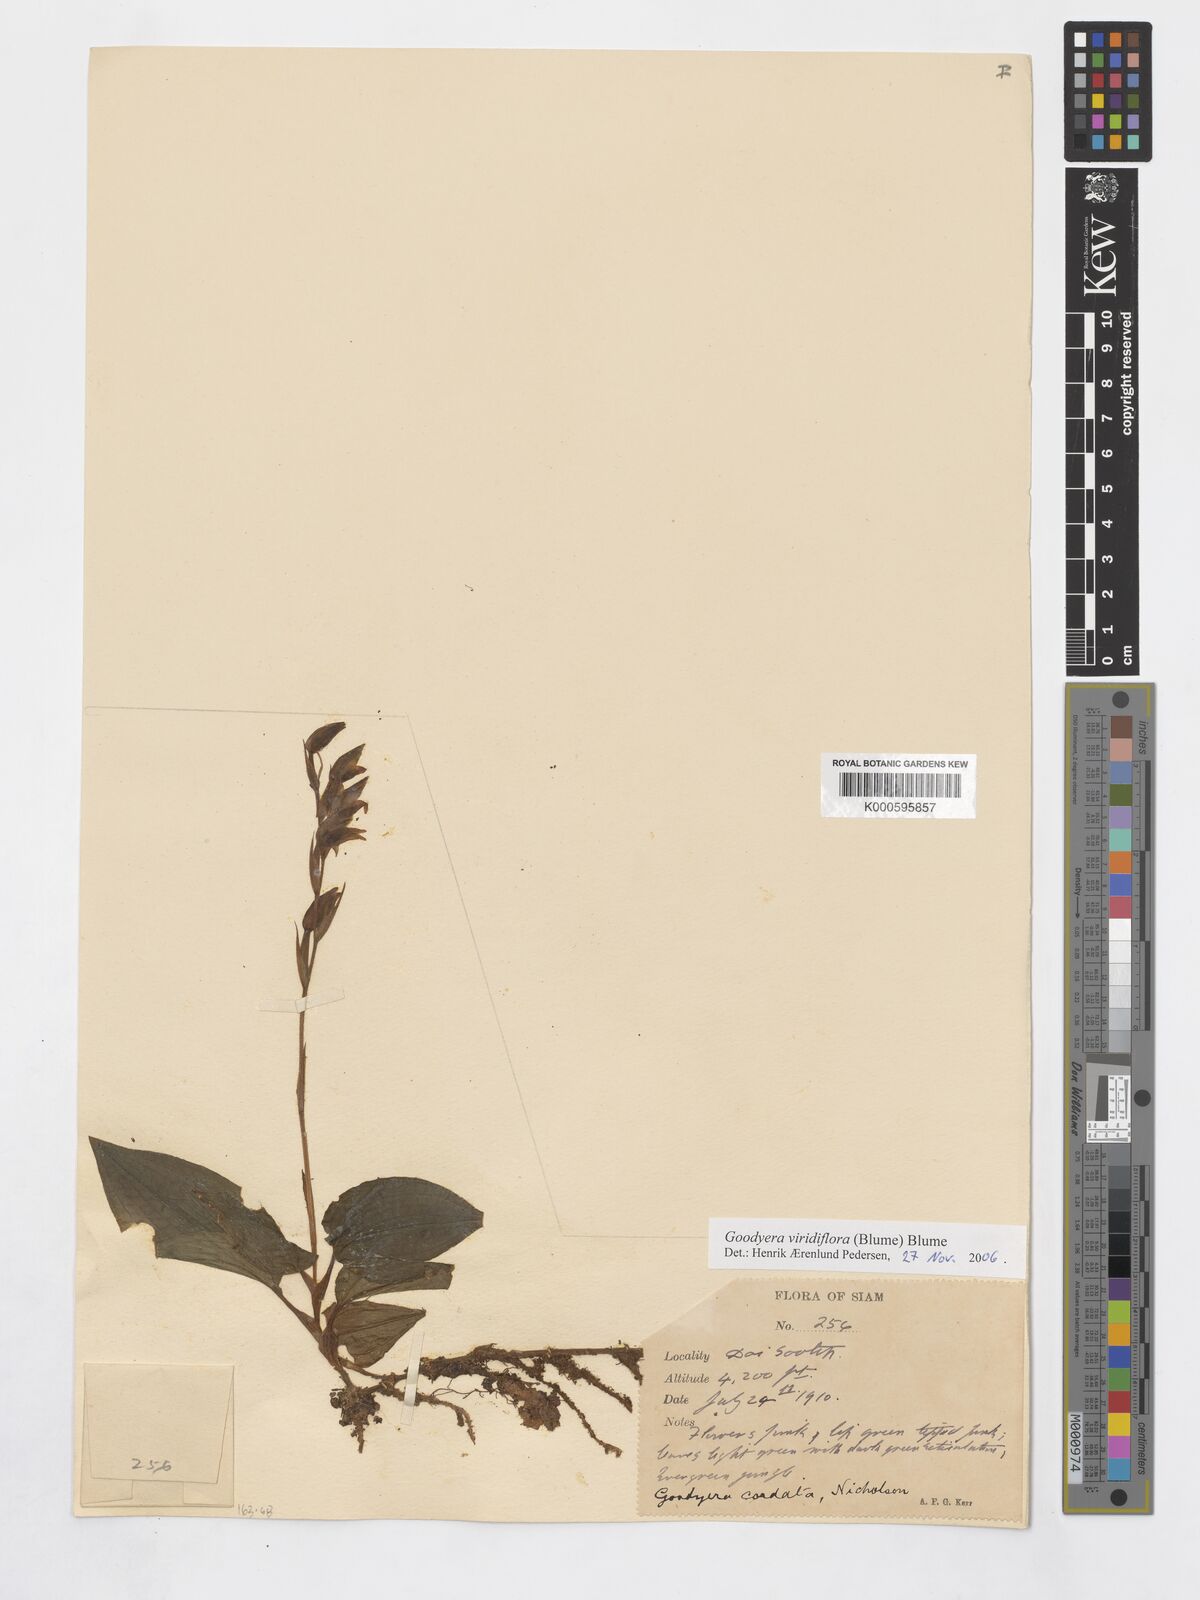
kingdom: Plantae
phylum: Tracheophyta
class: Liliopsida
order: Asparagales
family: Orchidaceae
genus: Goodyera
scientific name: Goodyera cordata
